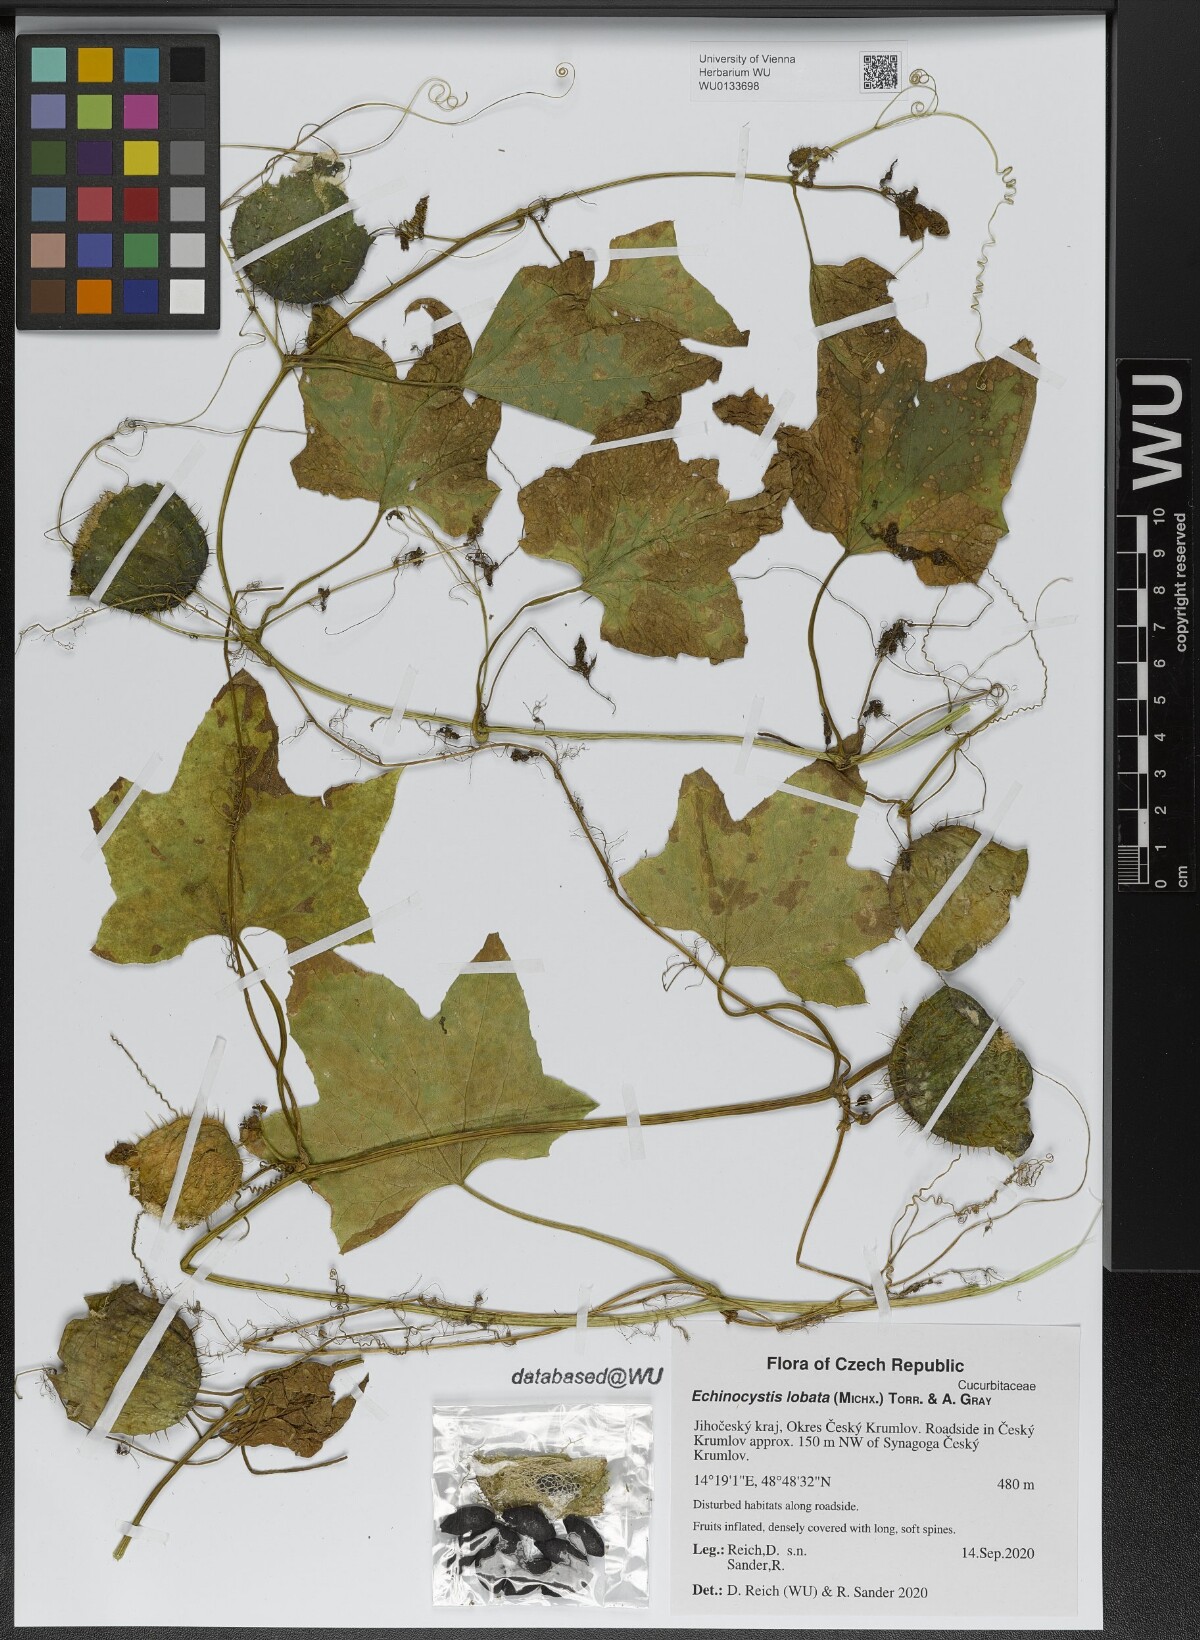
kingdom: Plantae
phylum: Tracheophyta
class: Magnoliopsida
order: Cucurbitales
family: Cucurbitaceae
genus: Echinocystis
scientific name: Echinocystis lobata
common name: Wild cucumber
